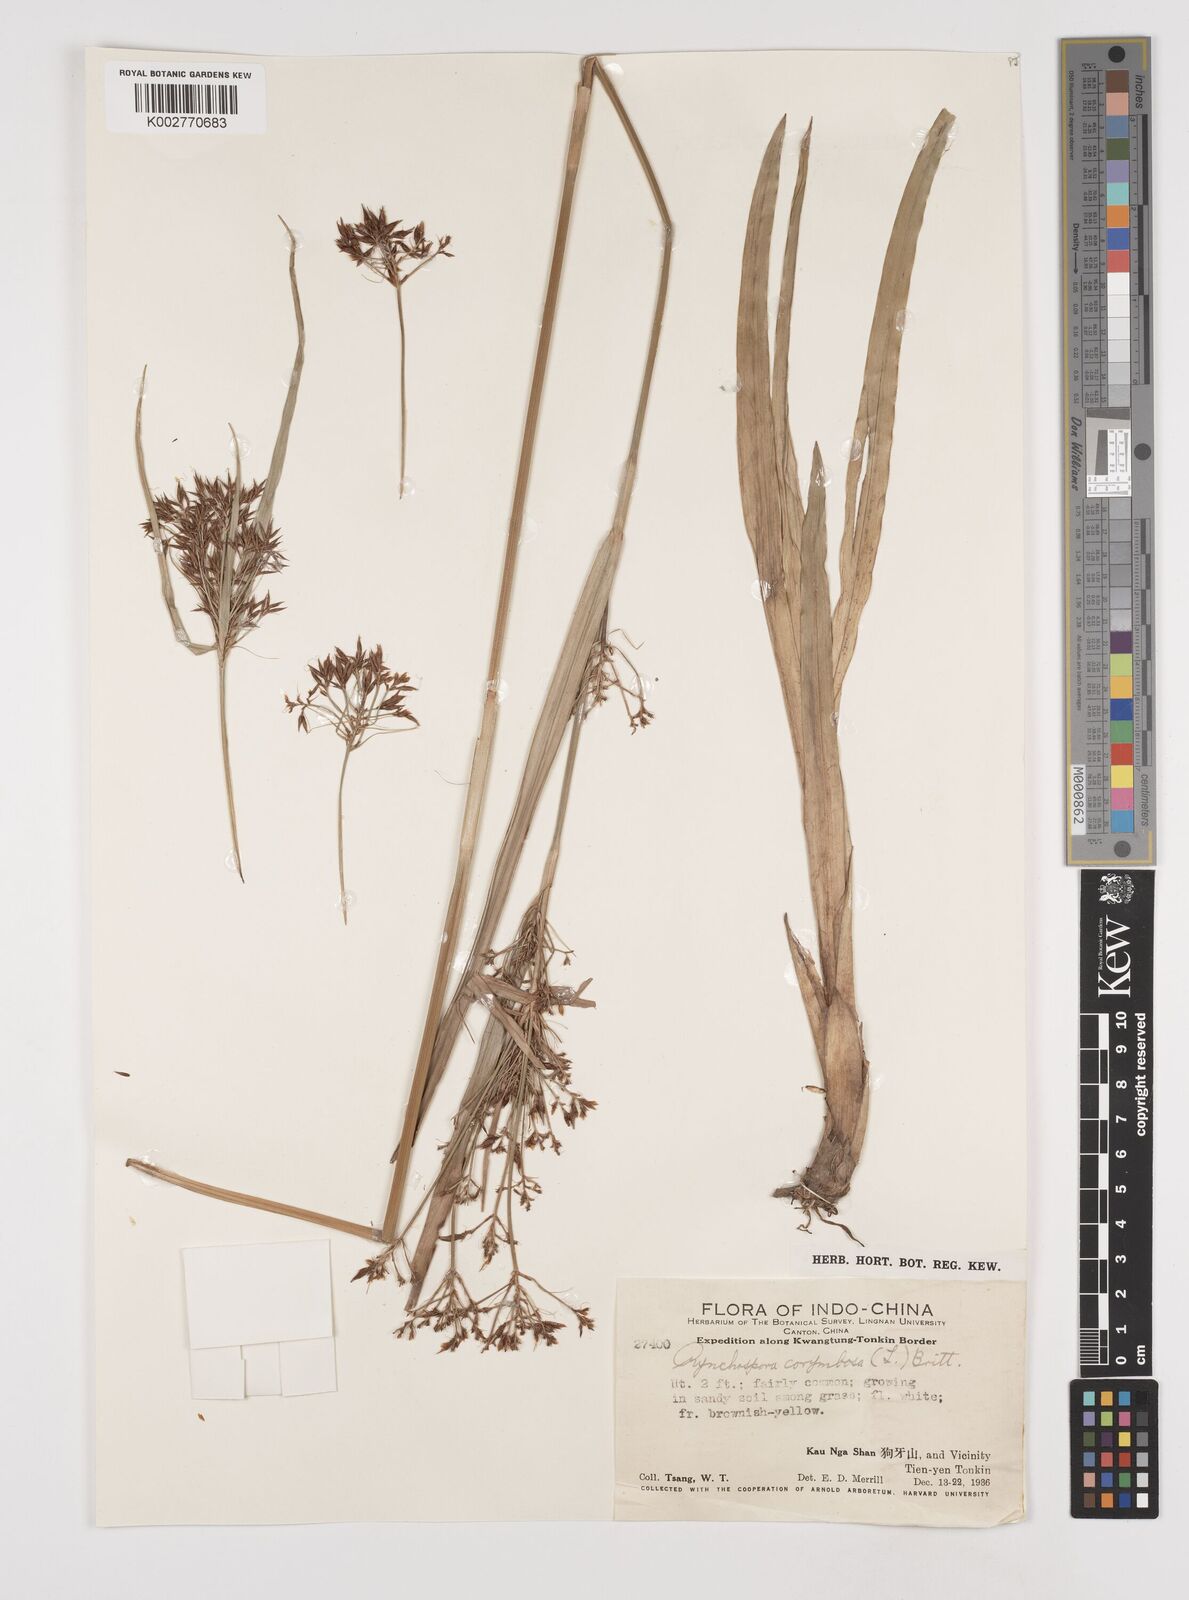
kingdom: Plantae
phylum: Tracheophyta
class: Liliopsida
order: Poales
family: Cyperaceae
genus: Rhynchospora
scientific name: Rhynchospora corymbosa
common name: Golden beak sedge
